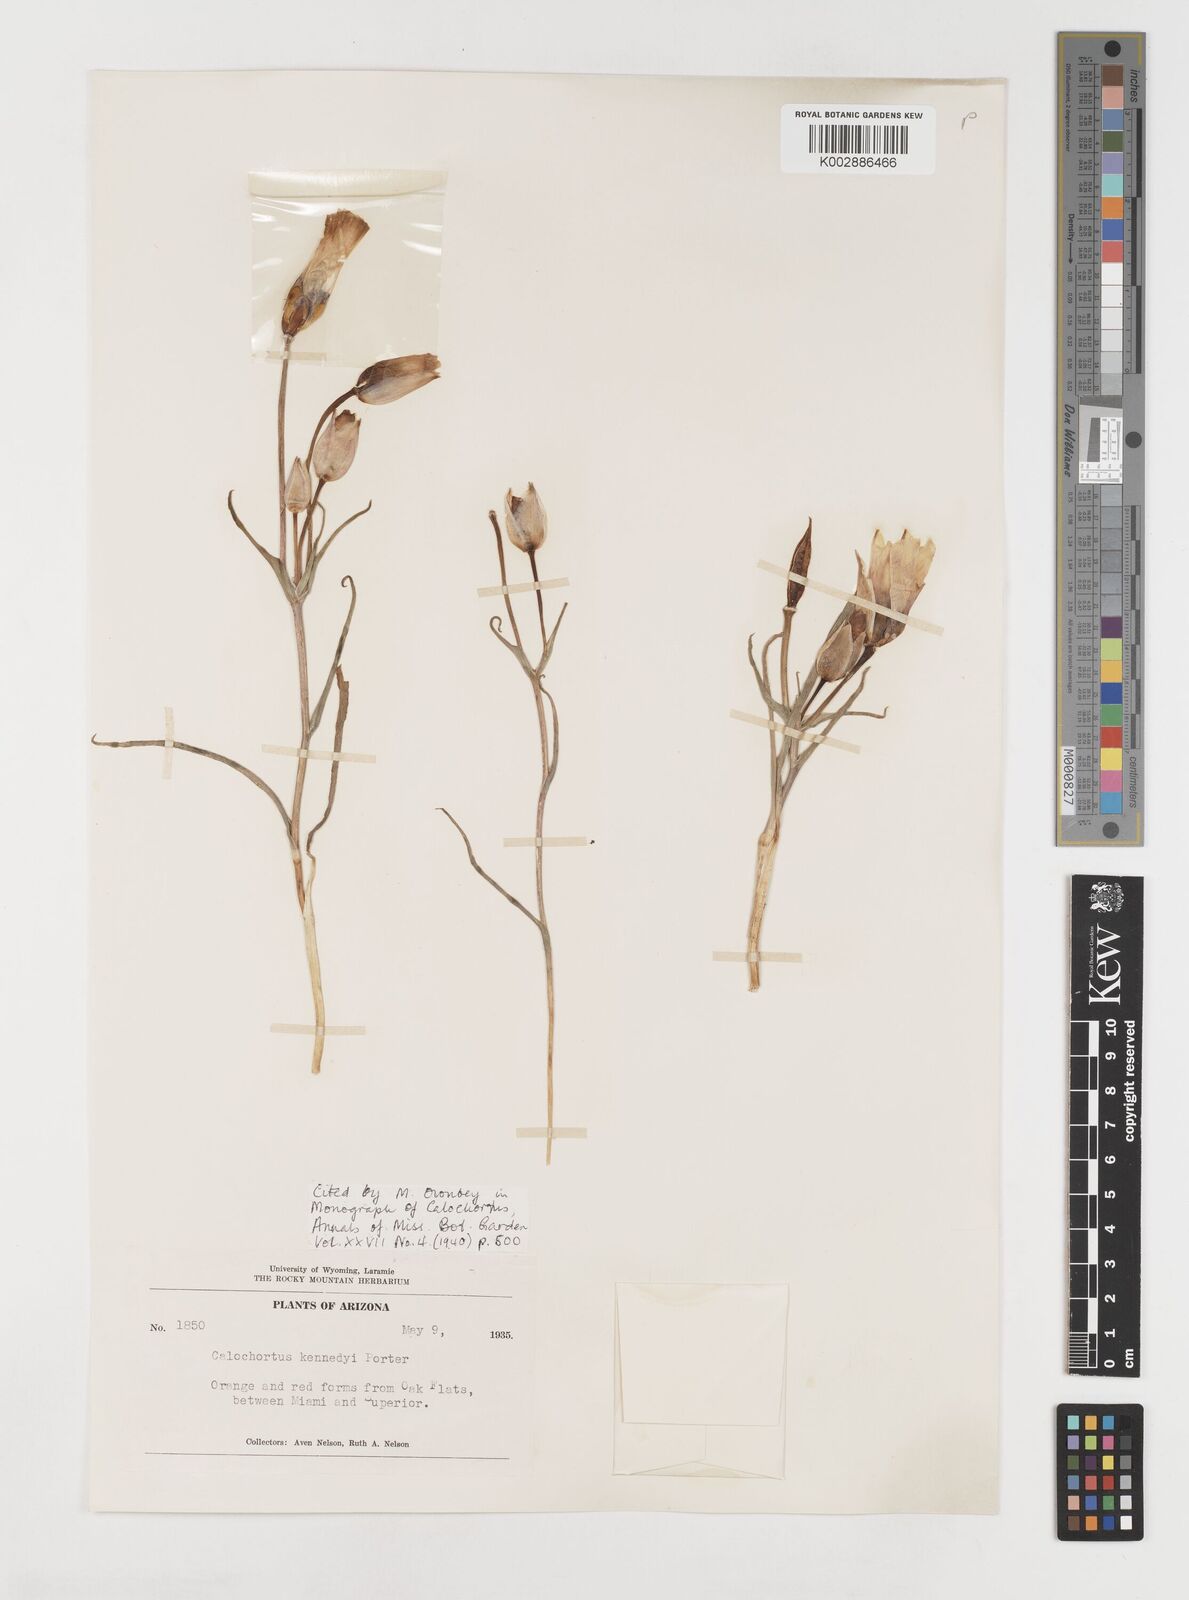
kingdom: Plantae
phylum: Tracheophyta
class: Liliopsida
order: Liliales
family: Liliaceae
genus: Calochortus
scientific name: Calochortus kennedyi
